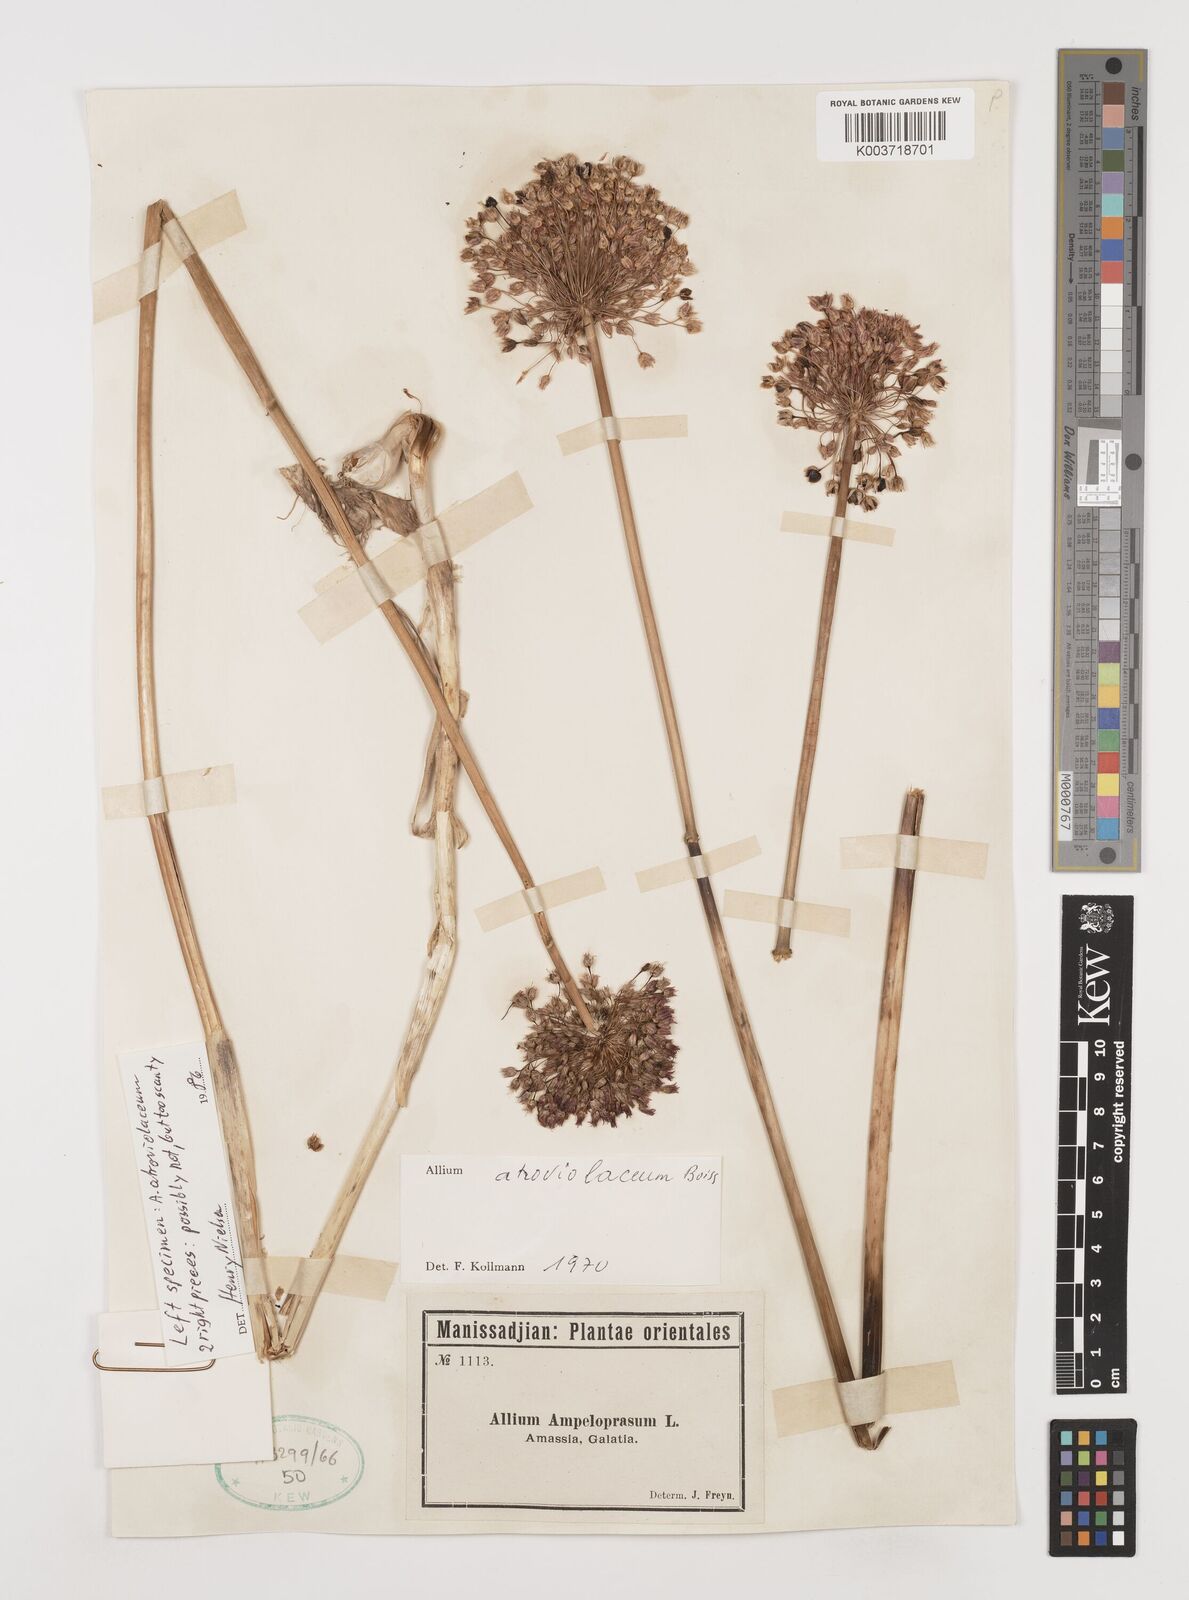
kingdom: Plantae
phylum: Tracheophyta
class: Liliopsida
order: Asparagales
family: Amaryllidaceae
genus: Allium
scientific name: Allium atroviolaceum
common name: Broadleaf wild leek
